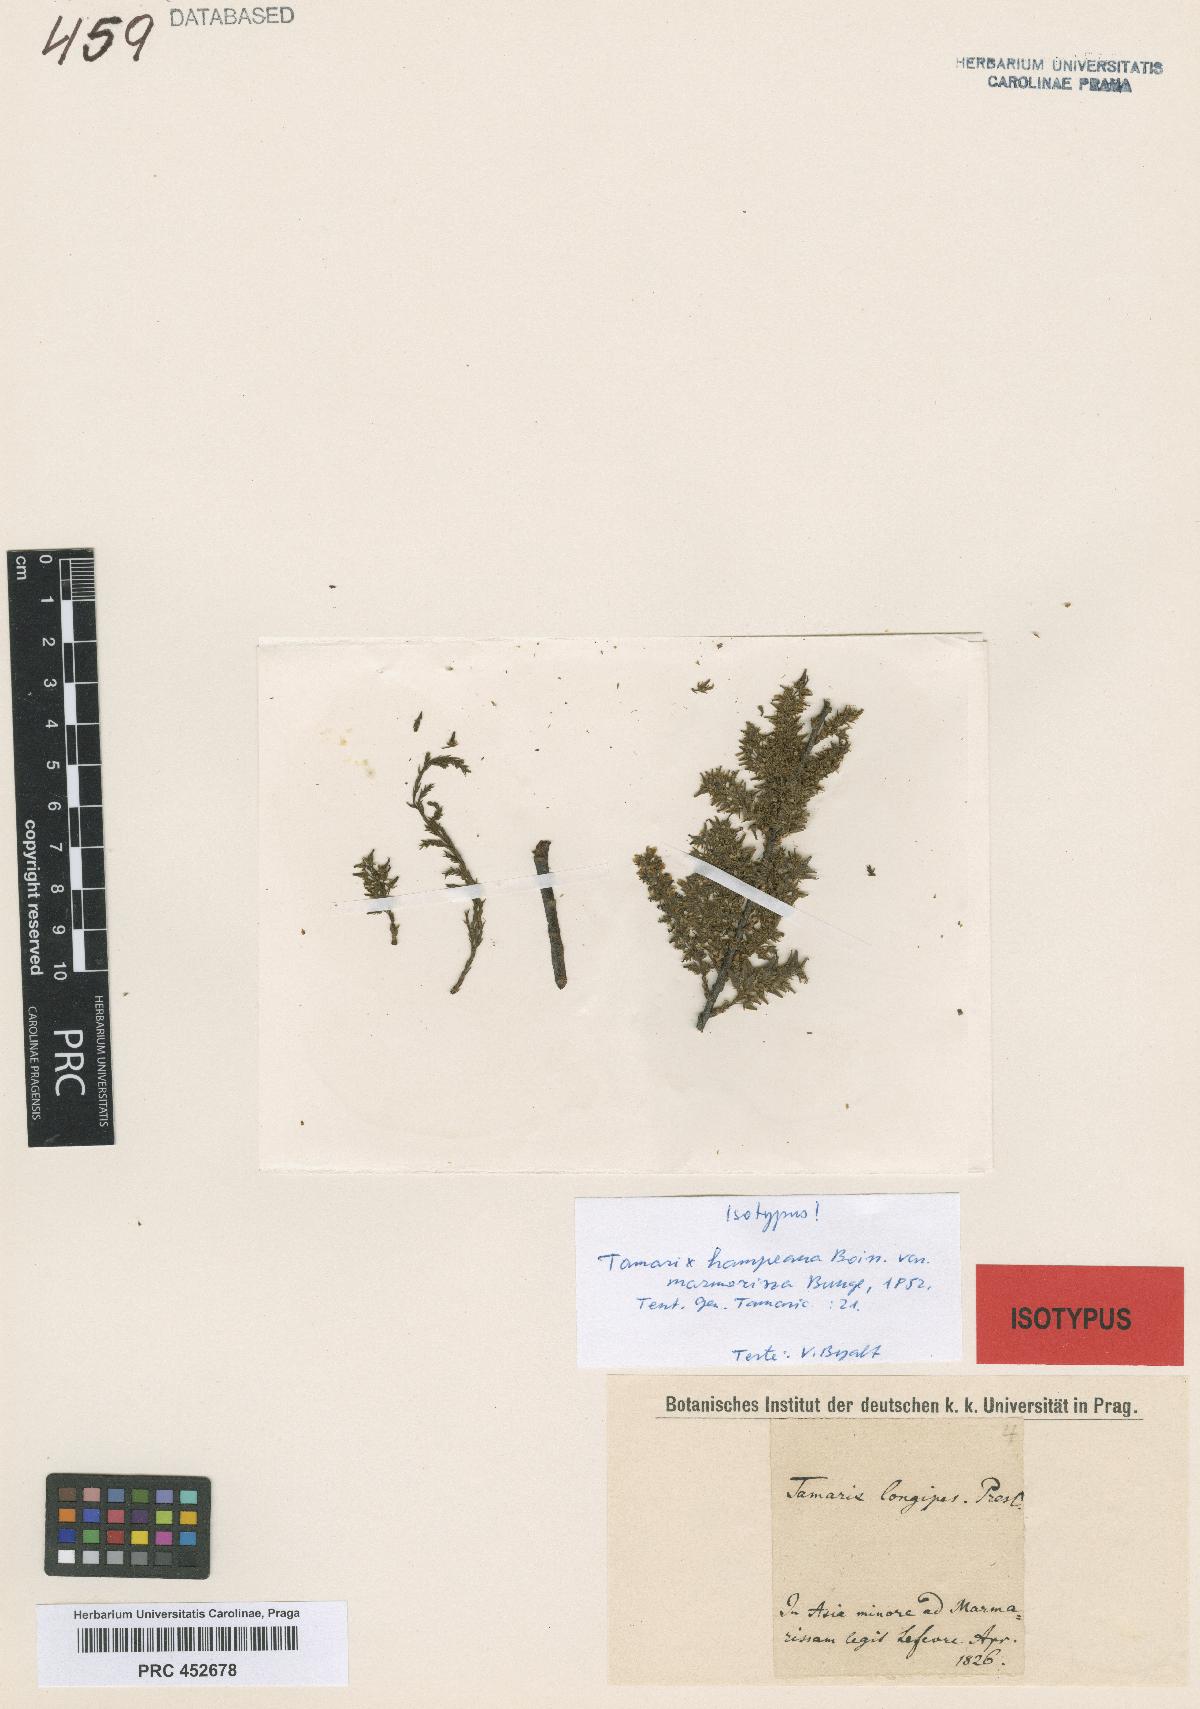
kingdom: Plantae
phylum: Tracheophyta
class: Magnoliopsida
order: Caryophyllales
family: Tamaricaceae
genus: Tamarix
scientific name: Tamarix hampeana
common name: Hampe’s tamarisk
